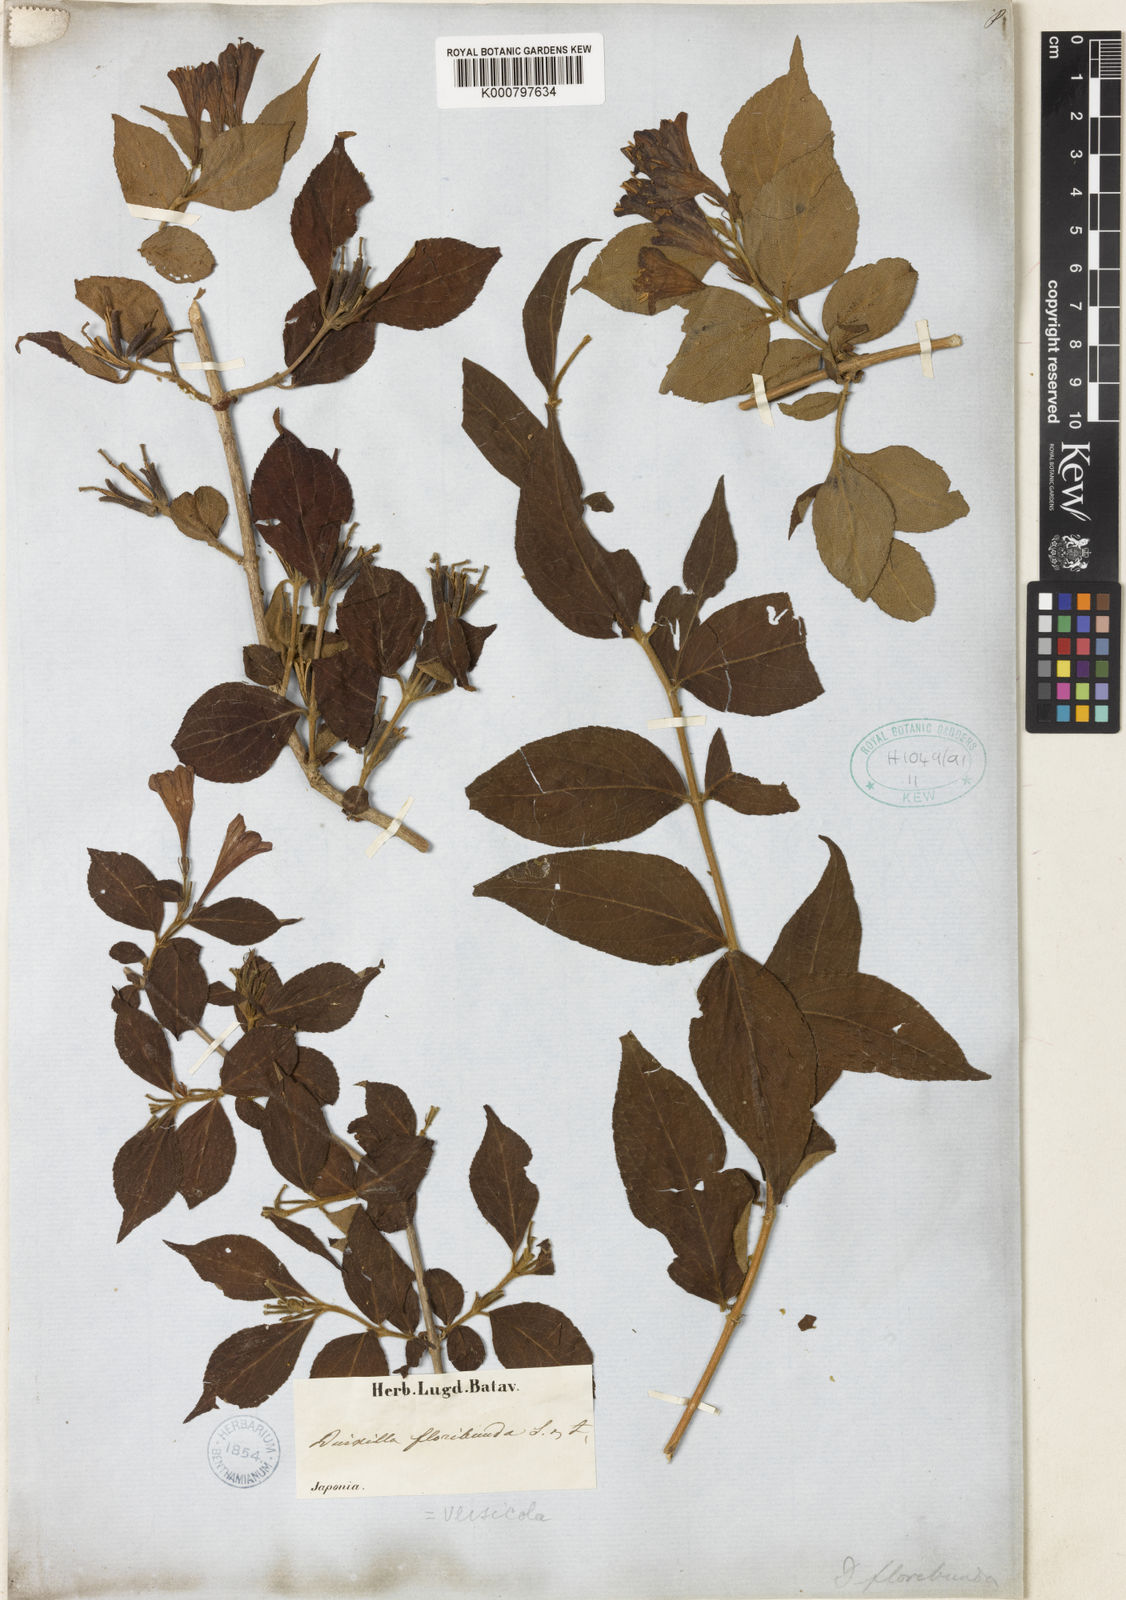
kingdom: Plantae
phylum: Tracheophyta
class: Magnoliopsida
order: Dipsacales
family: Caprifoliaceae
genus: Weigela
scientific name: Weigela
